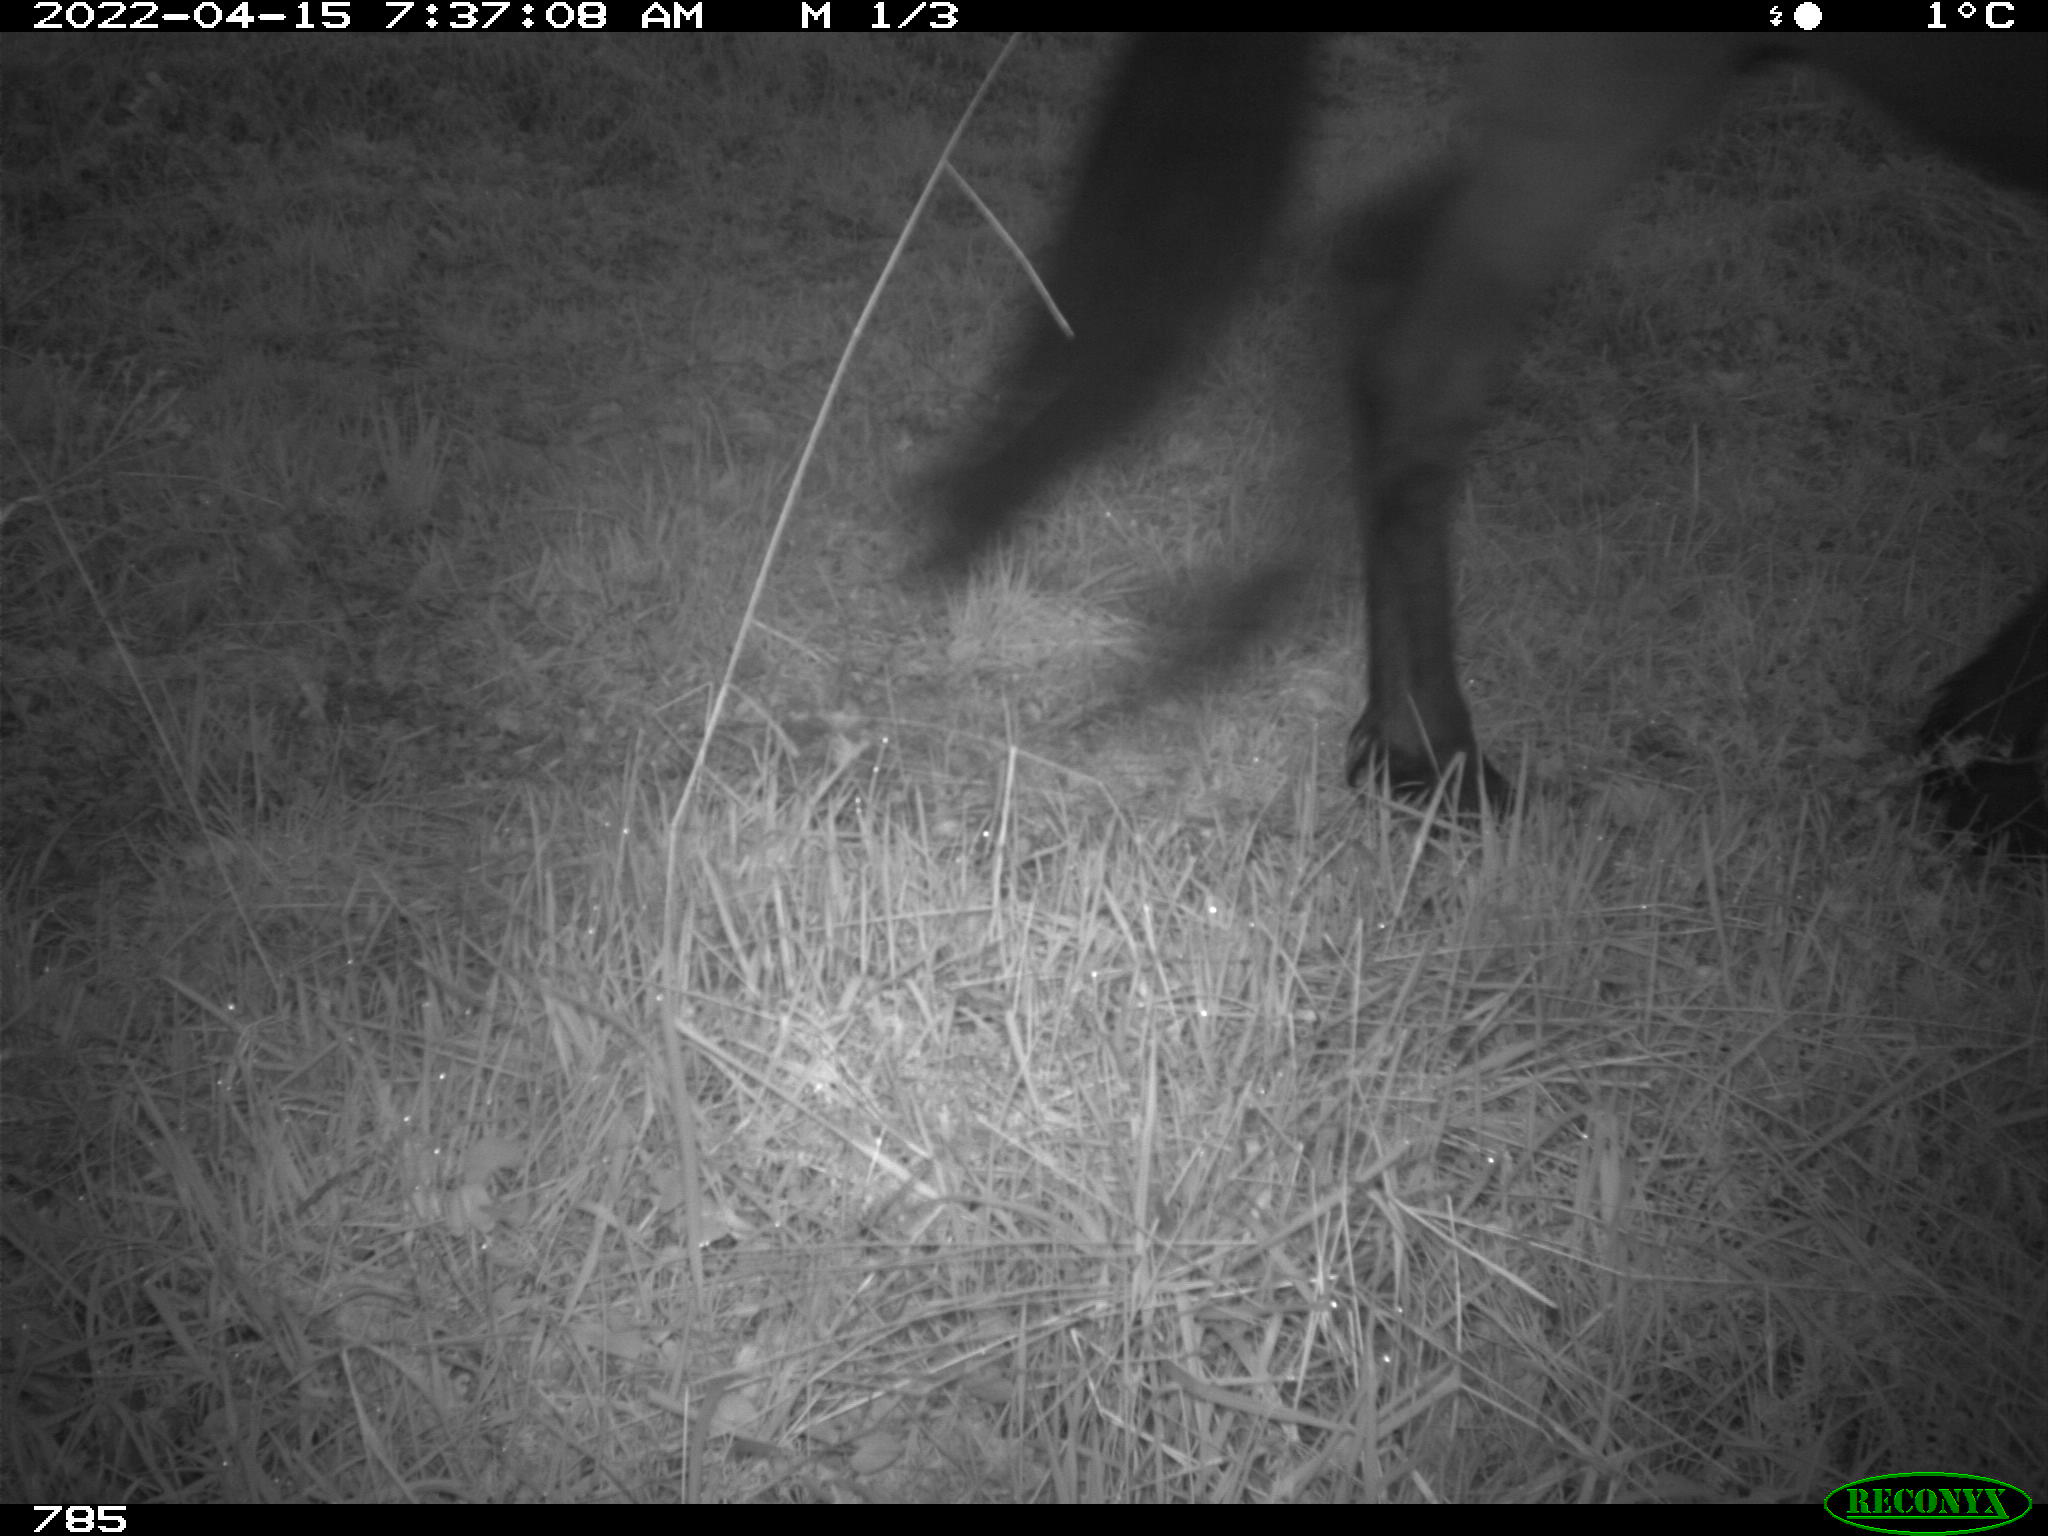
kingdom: Animalia
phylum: Chordata
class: Mammalia
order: Perissodactyla
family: Equidae
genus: Equus
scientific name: Equus caballus
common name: Horse
